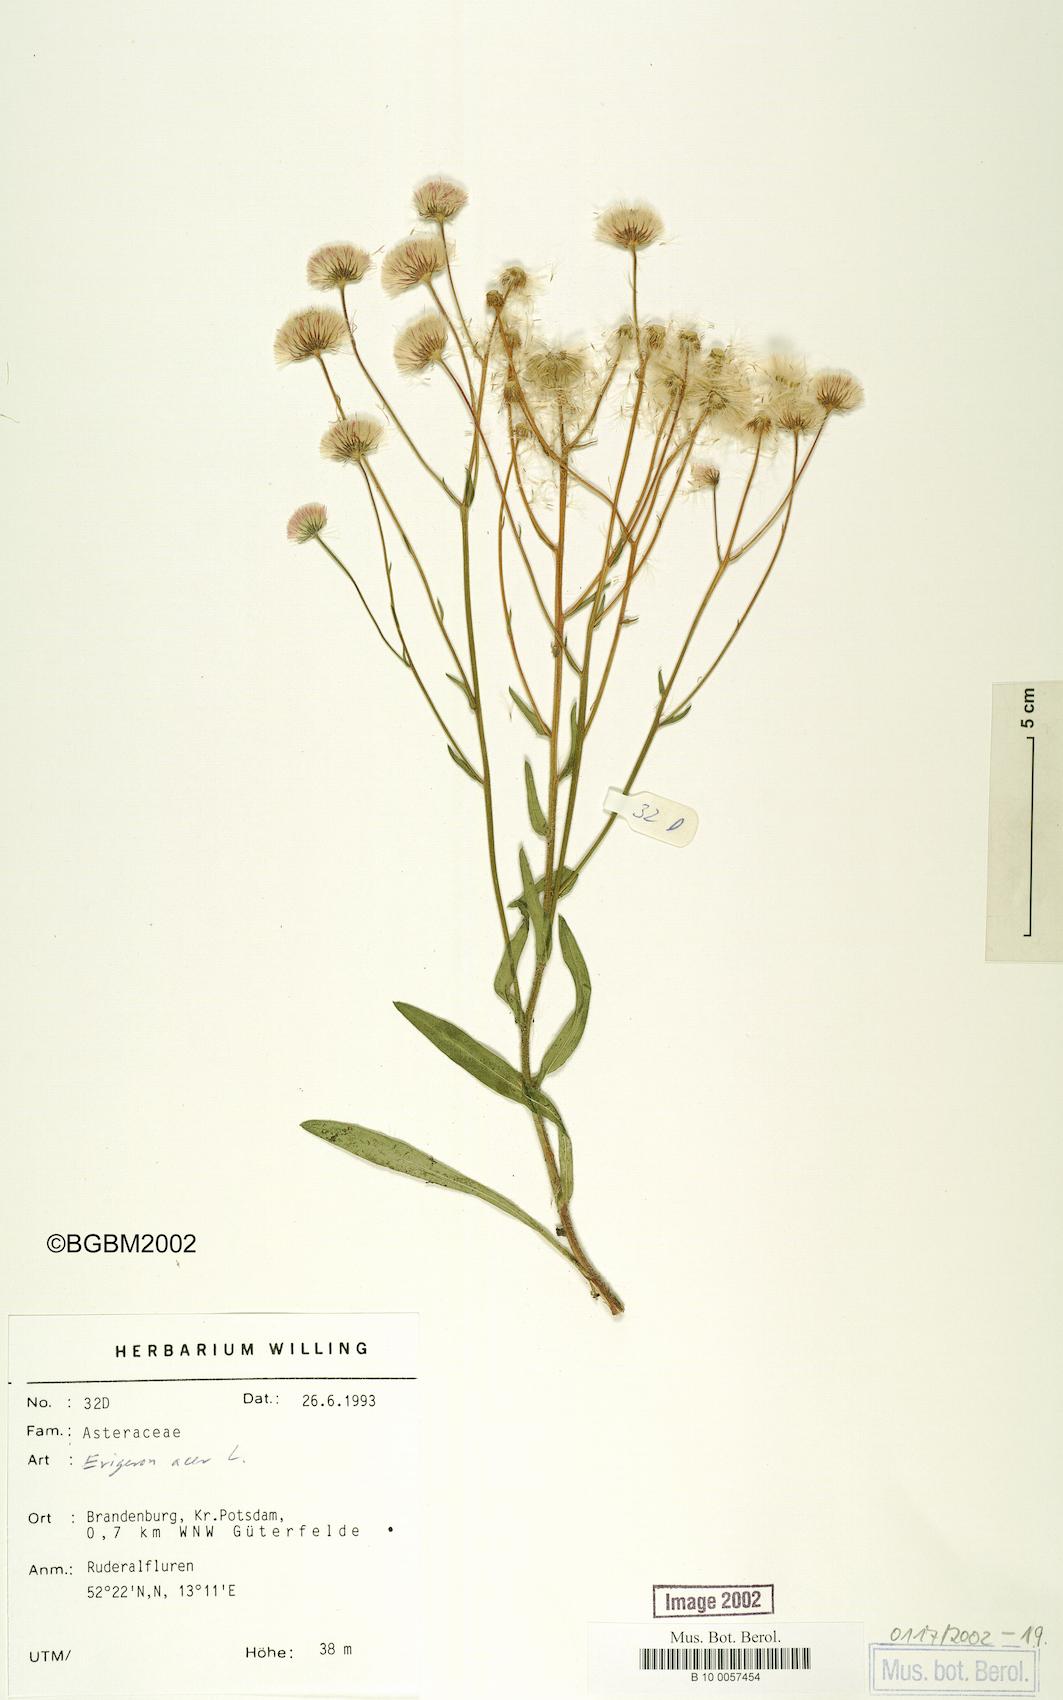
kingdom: Plantae
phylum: Tracheophyta
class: Magnoliopsida
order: Asterales
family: Asteraceae
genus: Erigeron
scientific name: Erigeron acris
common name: Blue fleabane
